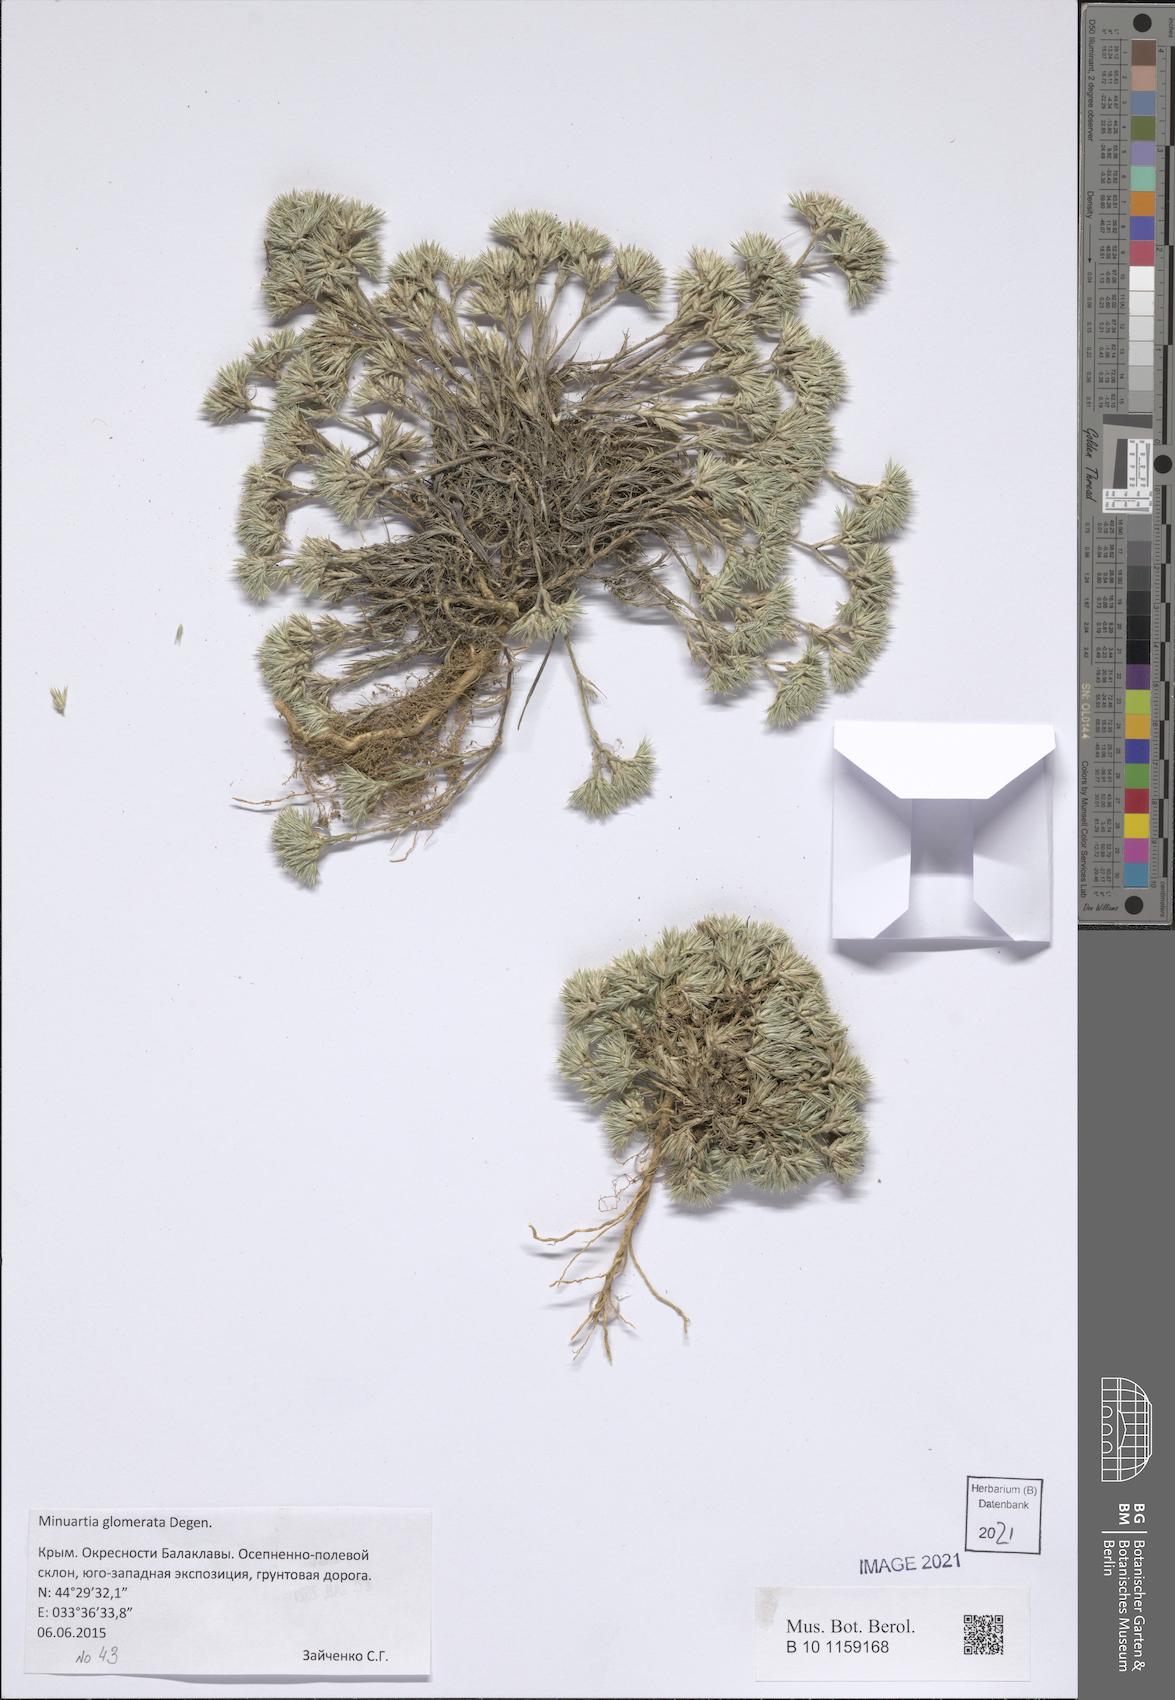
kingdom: Plantae
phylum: Tracheophyta
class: Magnoliopsida
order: Caryophyllales
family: Caryophyllaceae
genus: Minuartia
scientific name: Minuartia glomerata
